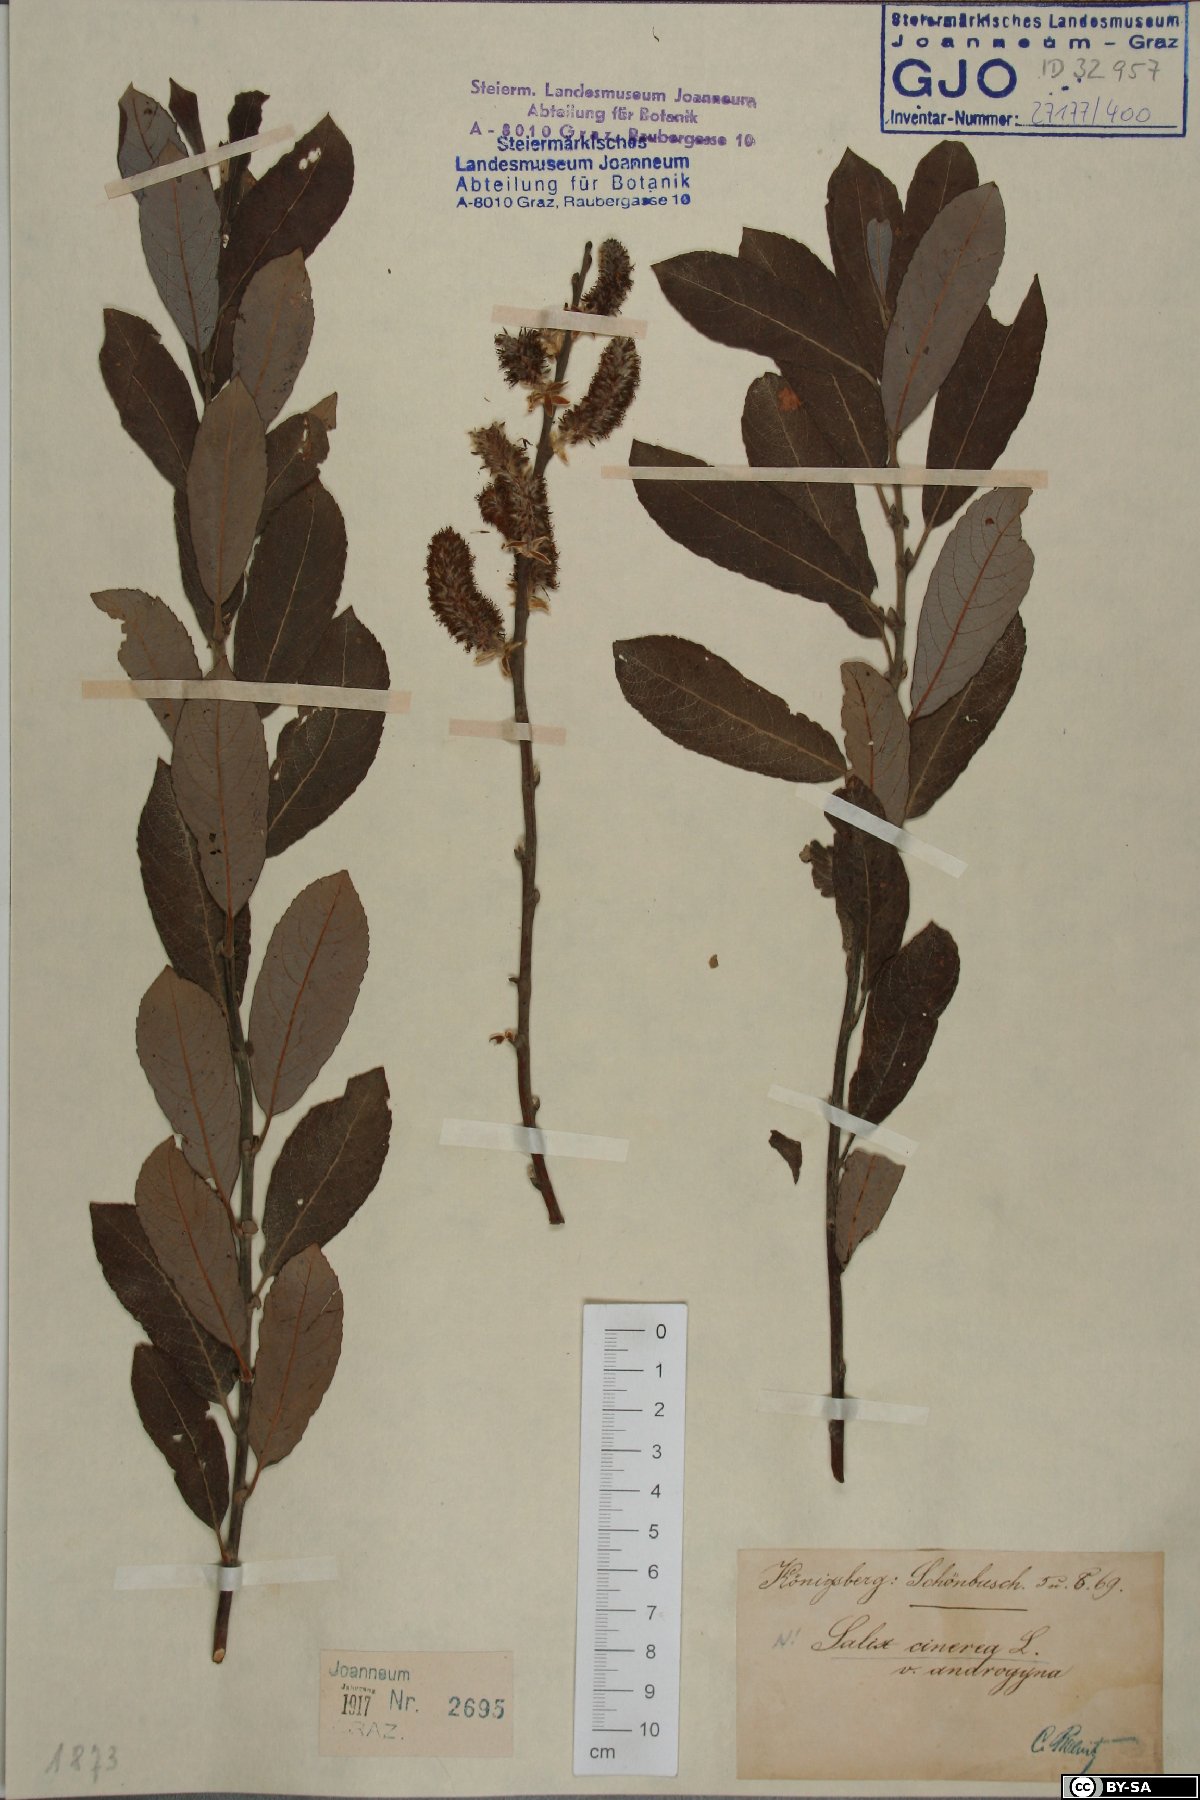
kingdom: Plantae
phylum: Tracheophyta
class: Magnoliopsida
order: Malpighiales
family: Salicaceae
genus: Salix
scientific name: Salix cinerea
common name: Common sallow
